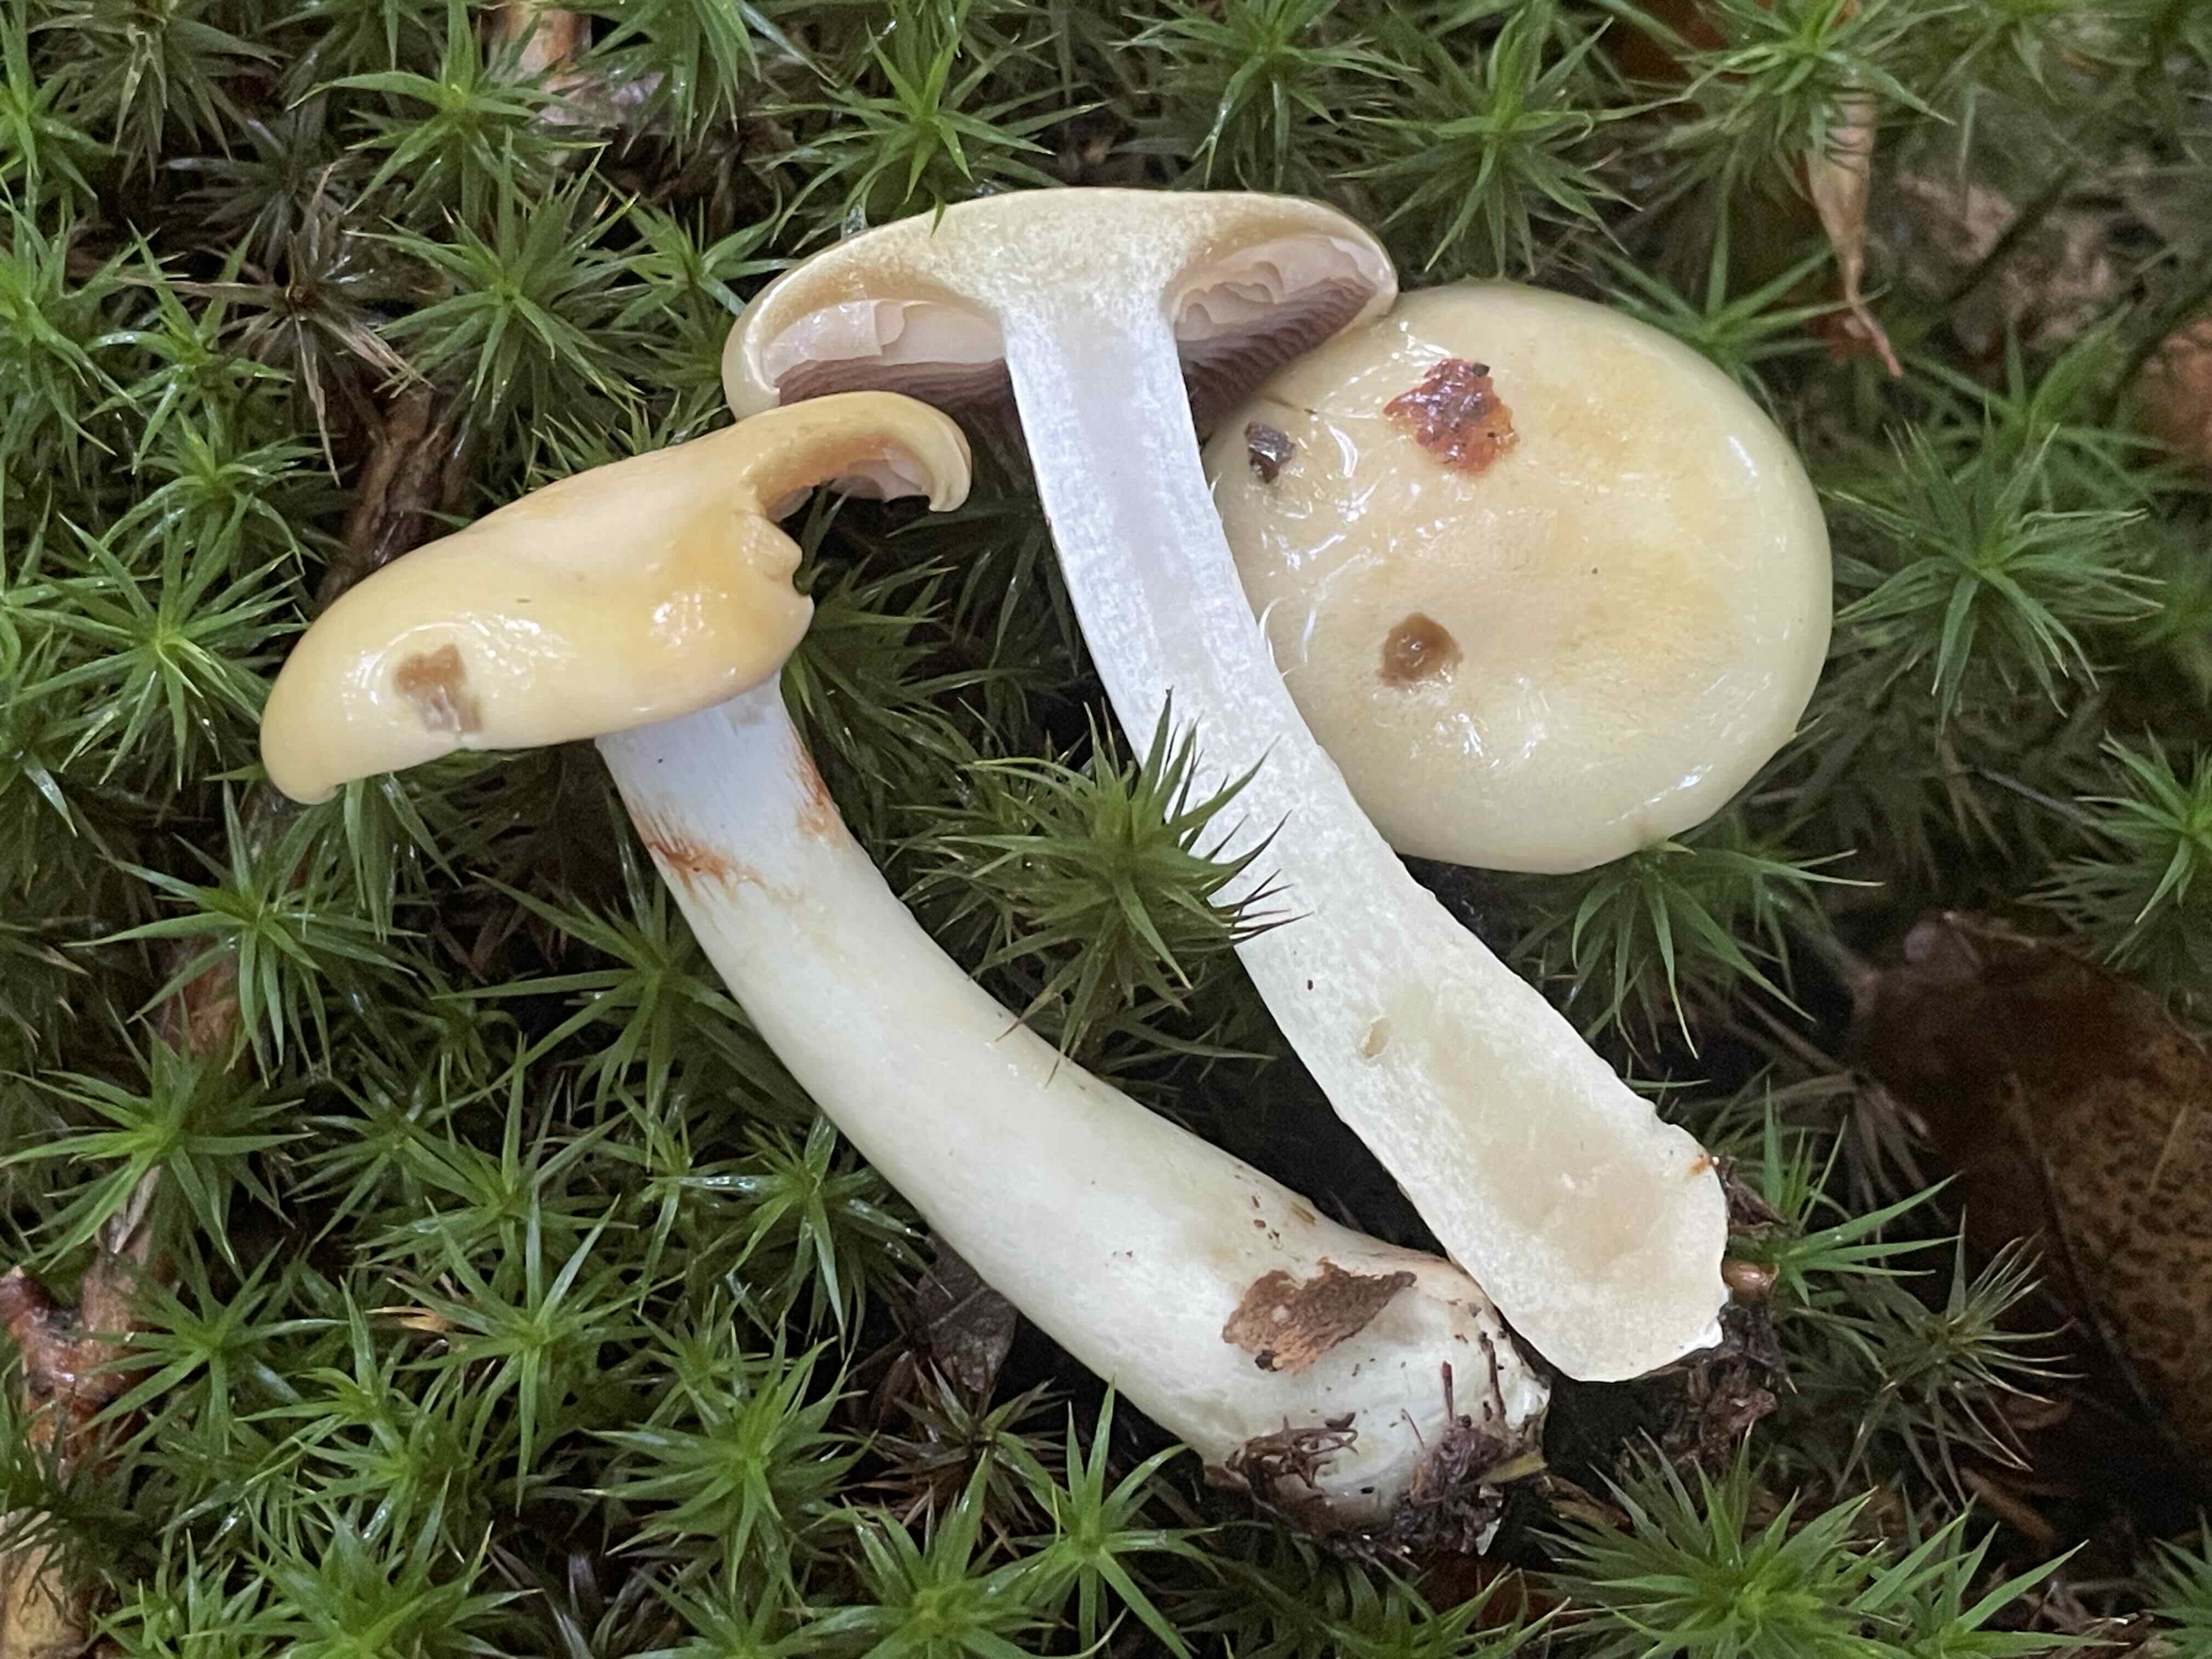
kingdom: Fungi
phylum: Basidiomycota
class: Agaricomycetes
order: Agaricales
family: Cortinariaceae
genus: Cortinarius
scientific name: Cortinarius delibutus
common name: gul slørhat
